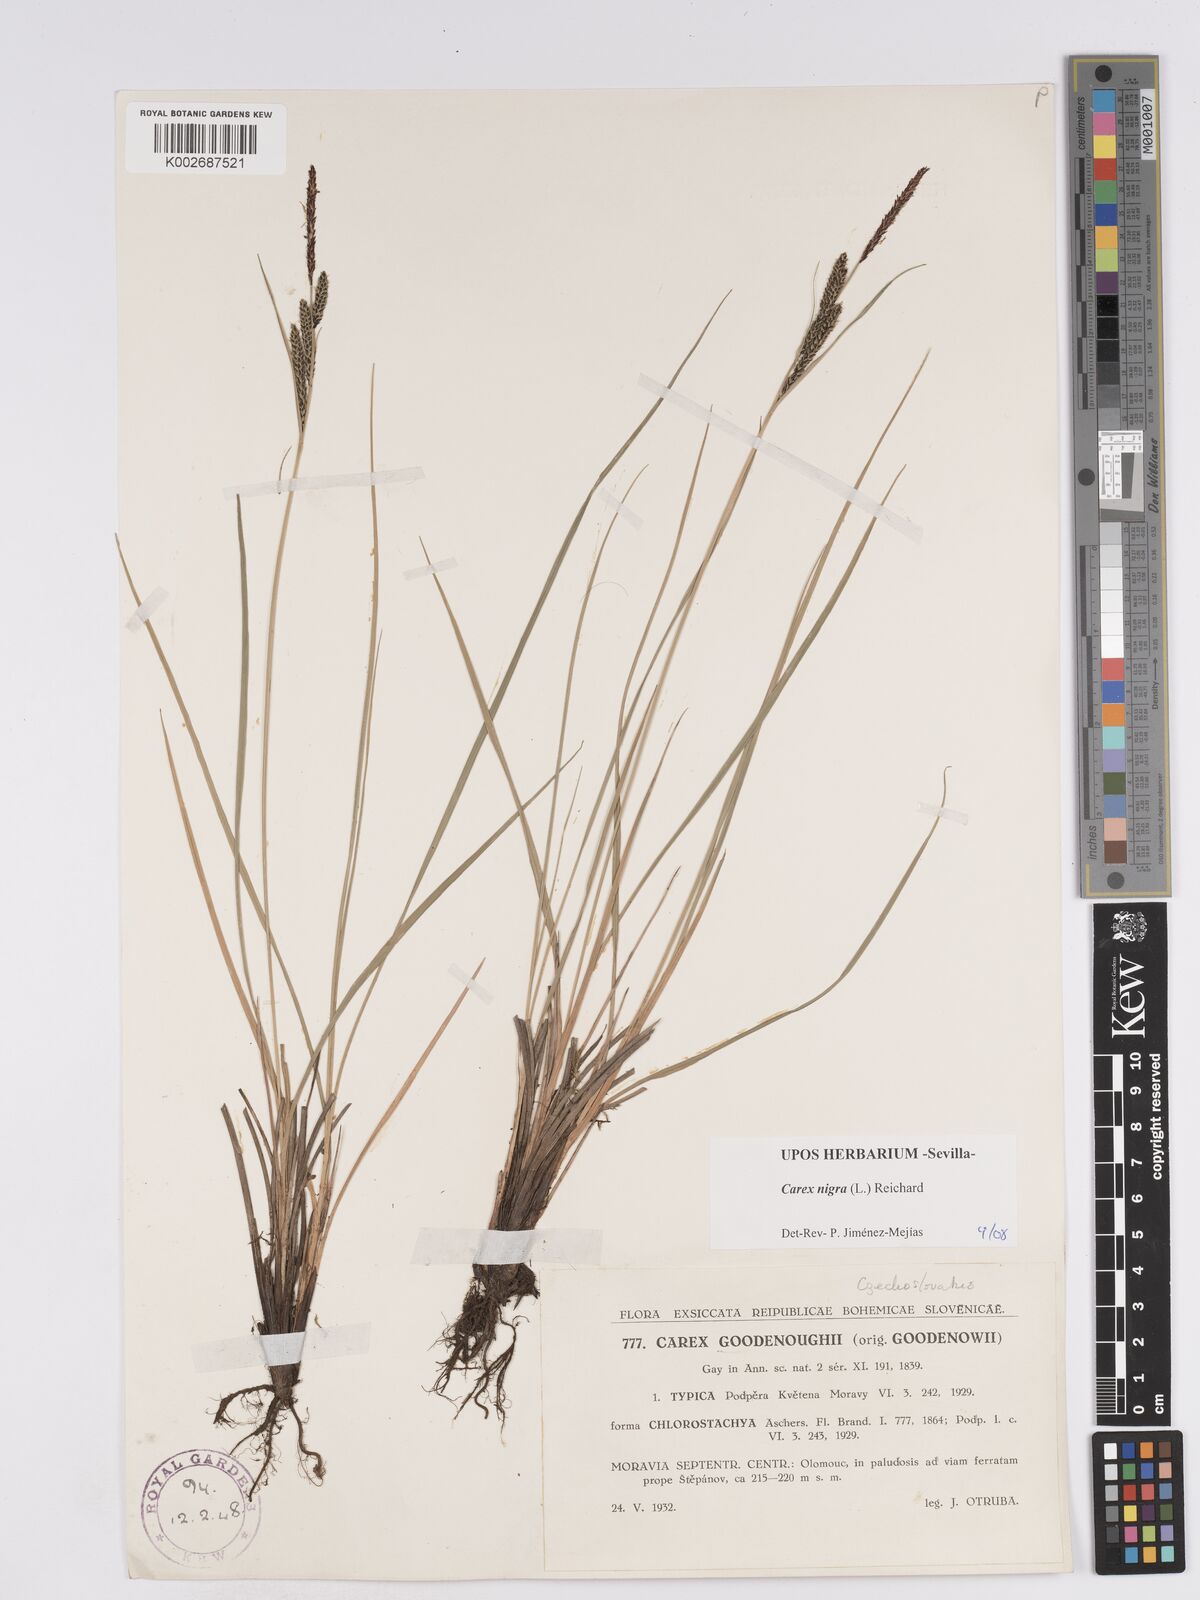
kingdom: Plantae
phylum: Tracheophyta
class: Liliopsida
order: Poales
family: Cyperaceae
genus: Carex
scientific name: Carex nigra
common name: Common sedge
